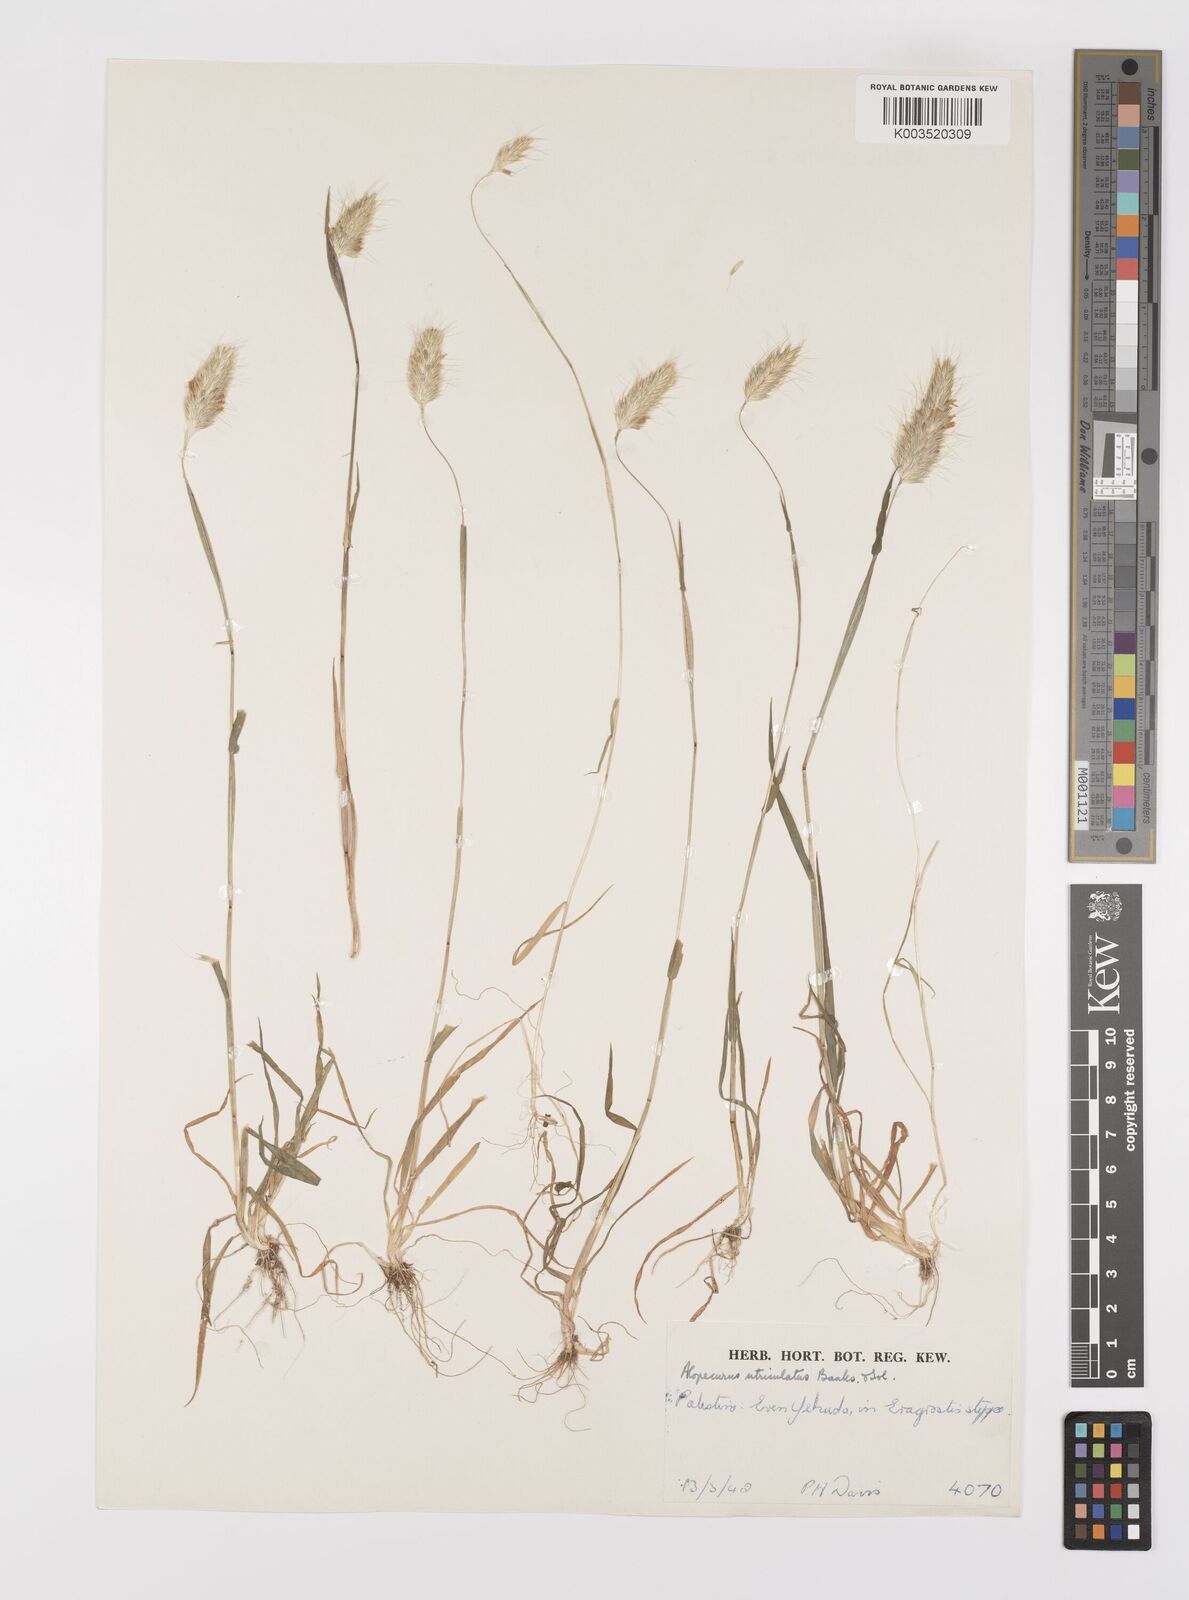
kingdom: Plantae
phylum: Tracheophyta
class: Liliopsida
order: Poales
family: Poaceae
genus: Alopecurus
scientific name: Alopecurus utriculatus
